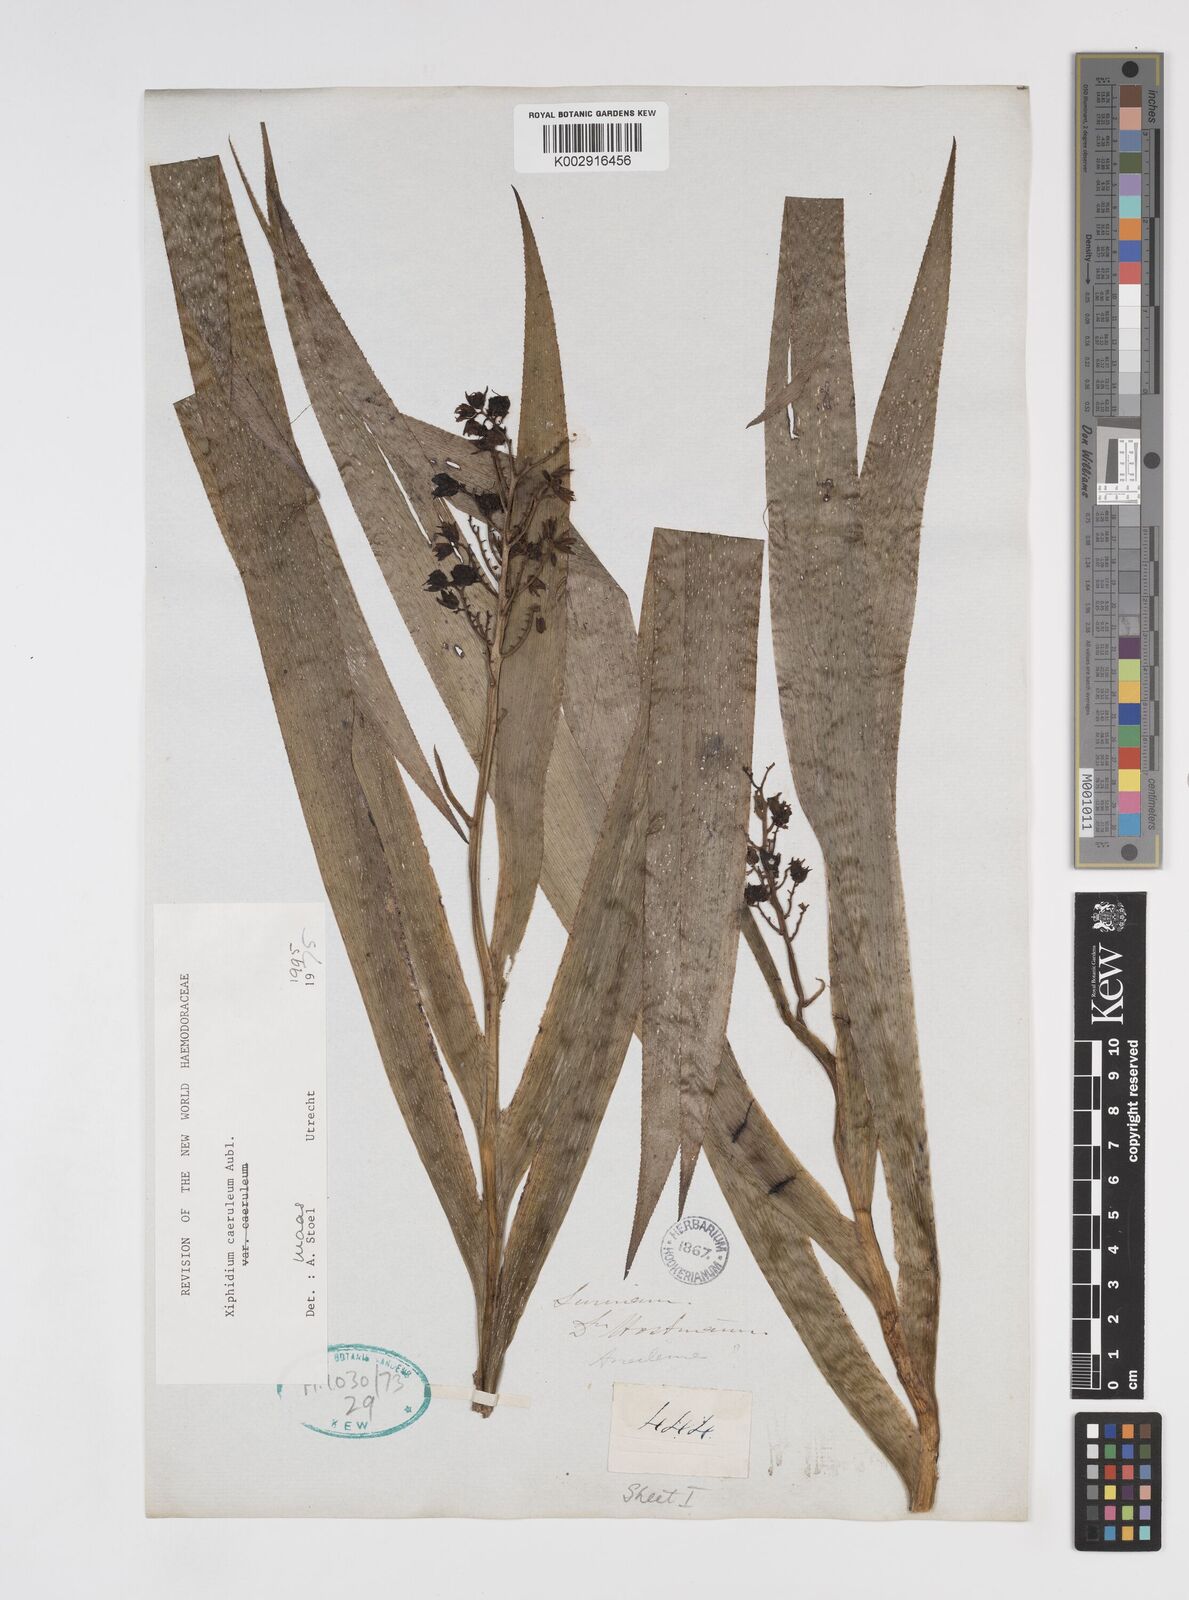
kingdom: Plantae
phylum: Tracheophyta
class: Liliopsida
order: Commelinales
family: Haemodoraceae
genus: Xiphidium
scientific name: Xiphidium caeruleum
